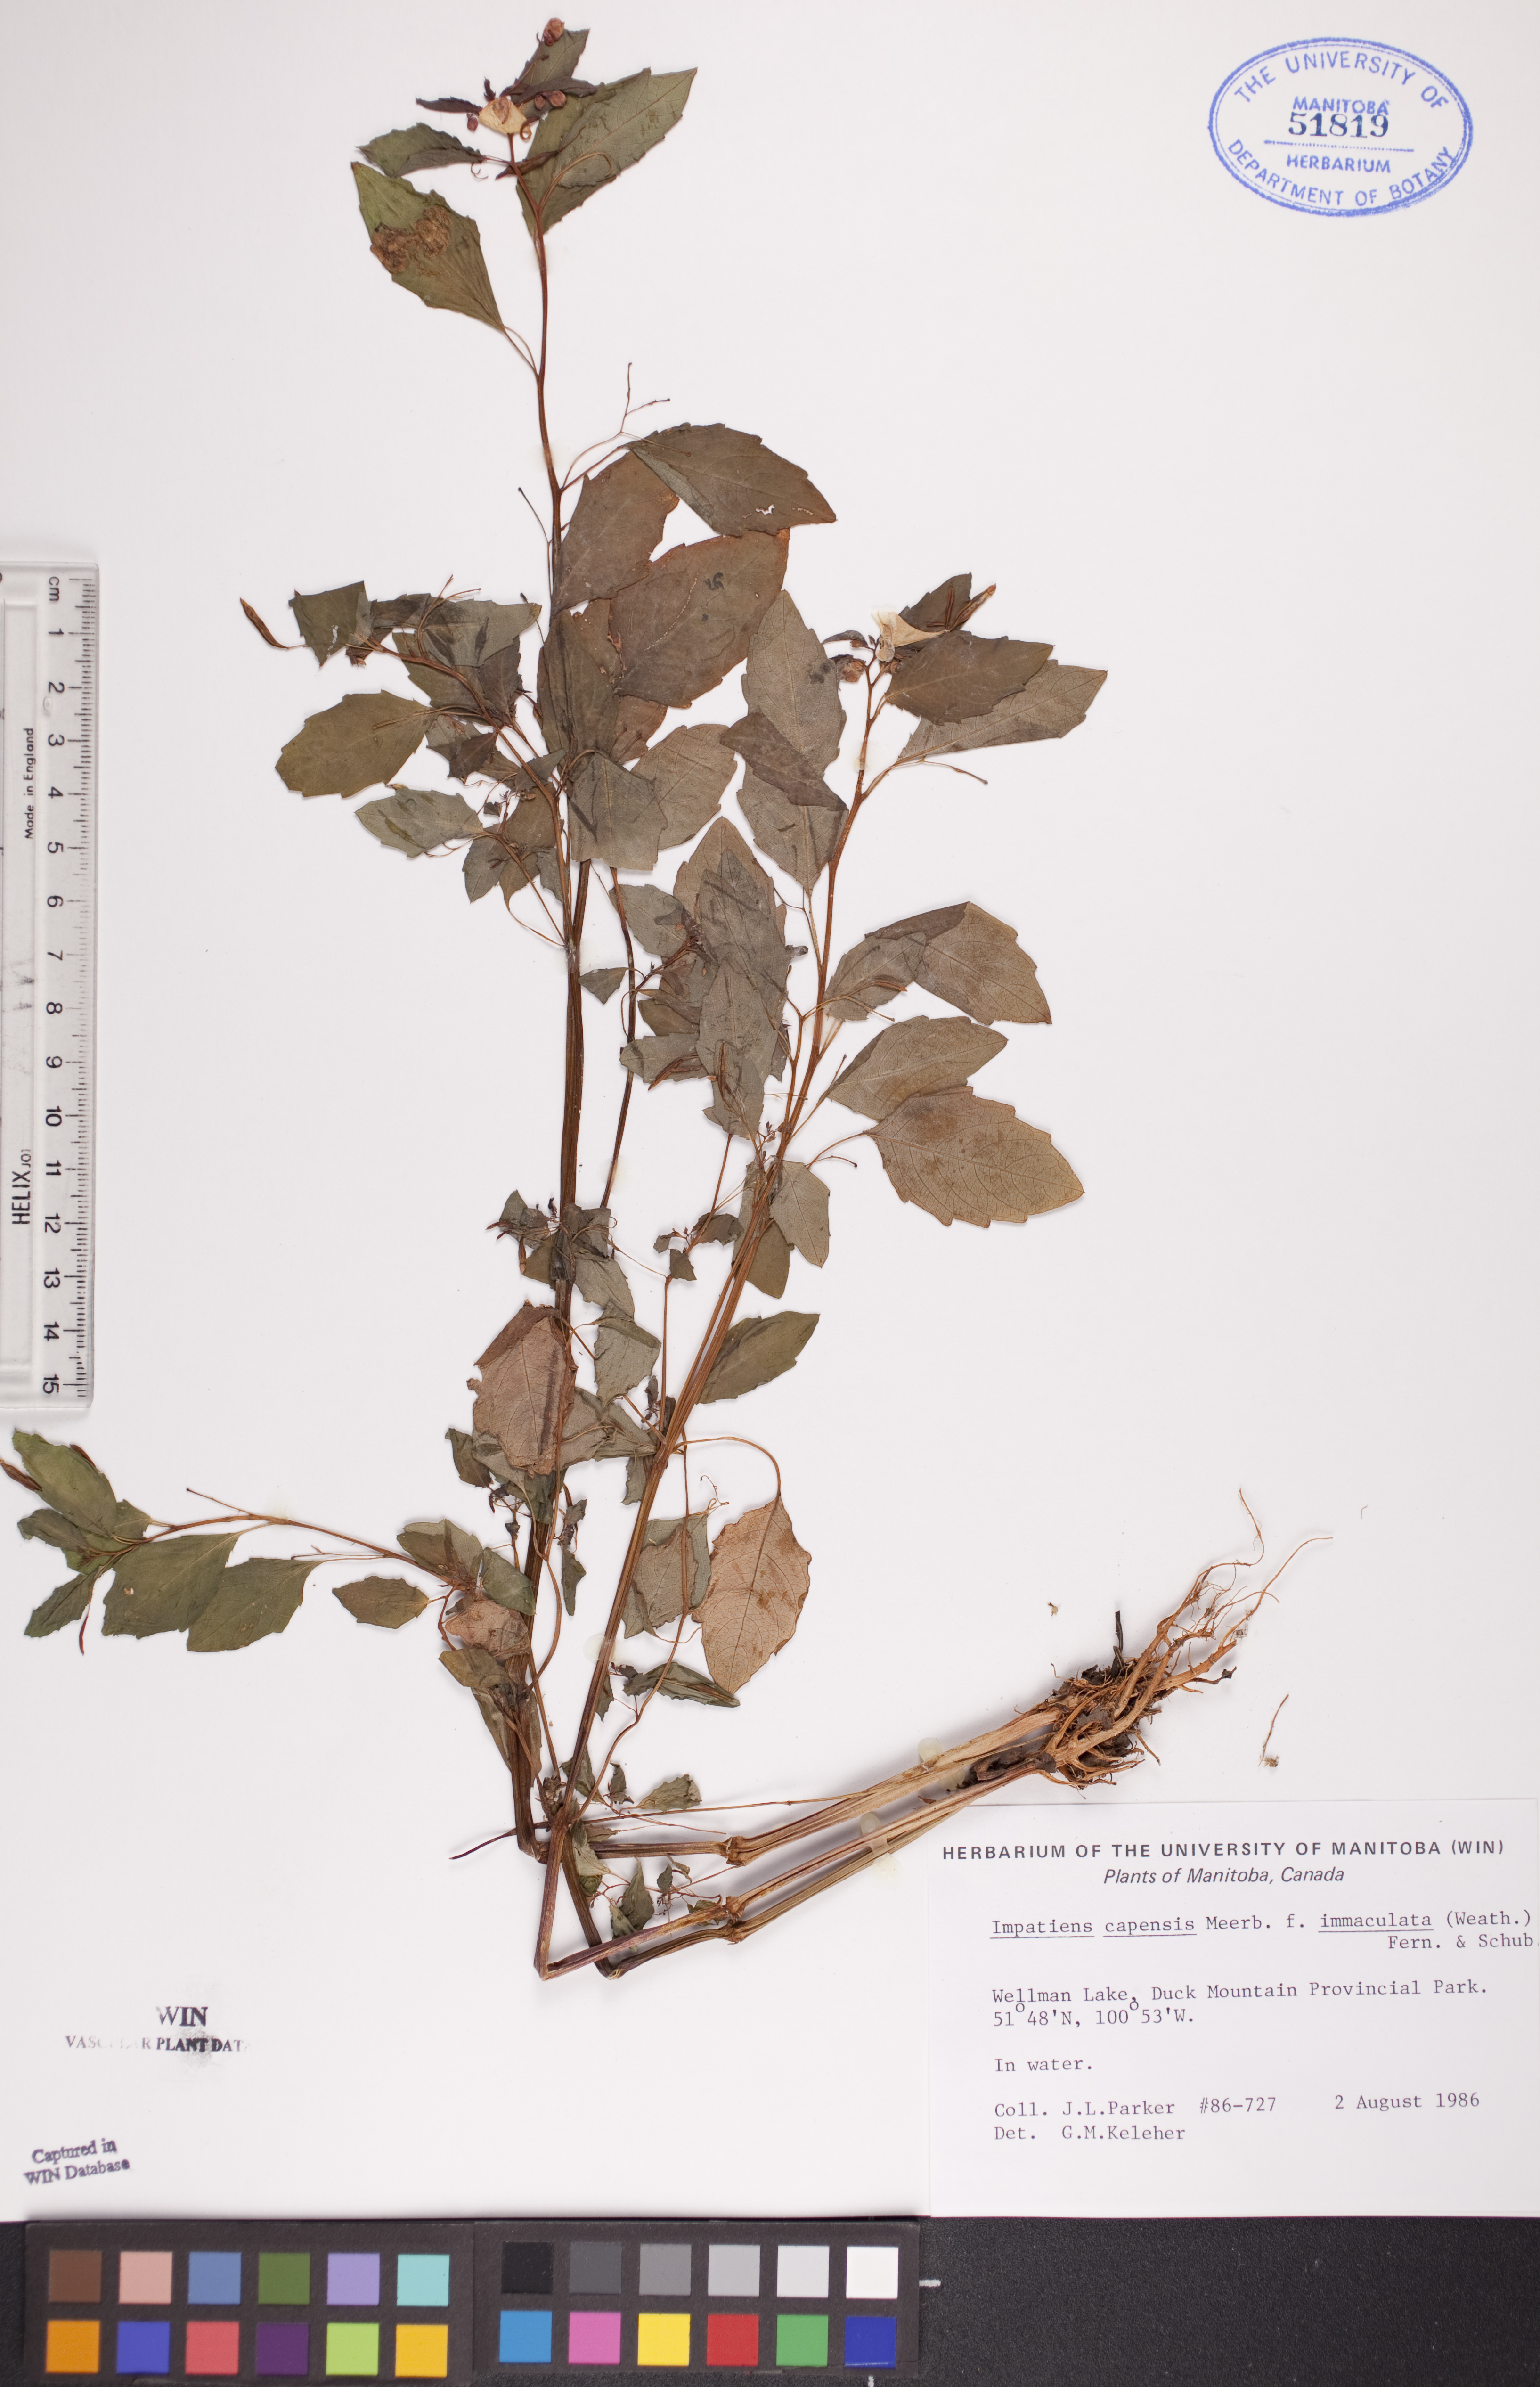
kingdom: Plantae
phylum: Tracheophyta
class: Magnoliopsida
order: Ericales
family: Balsaminaceae
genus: Impatiens
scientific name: Impatiens capensis
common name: Orange balsam
